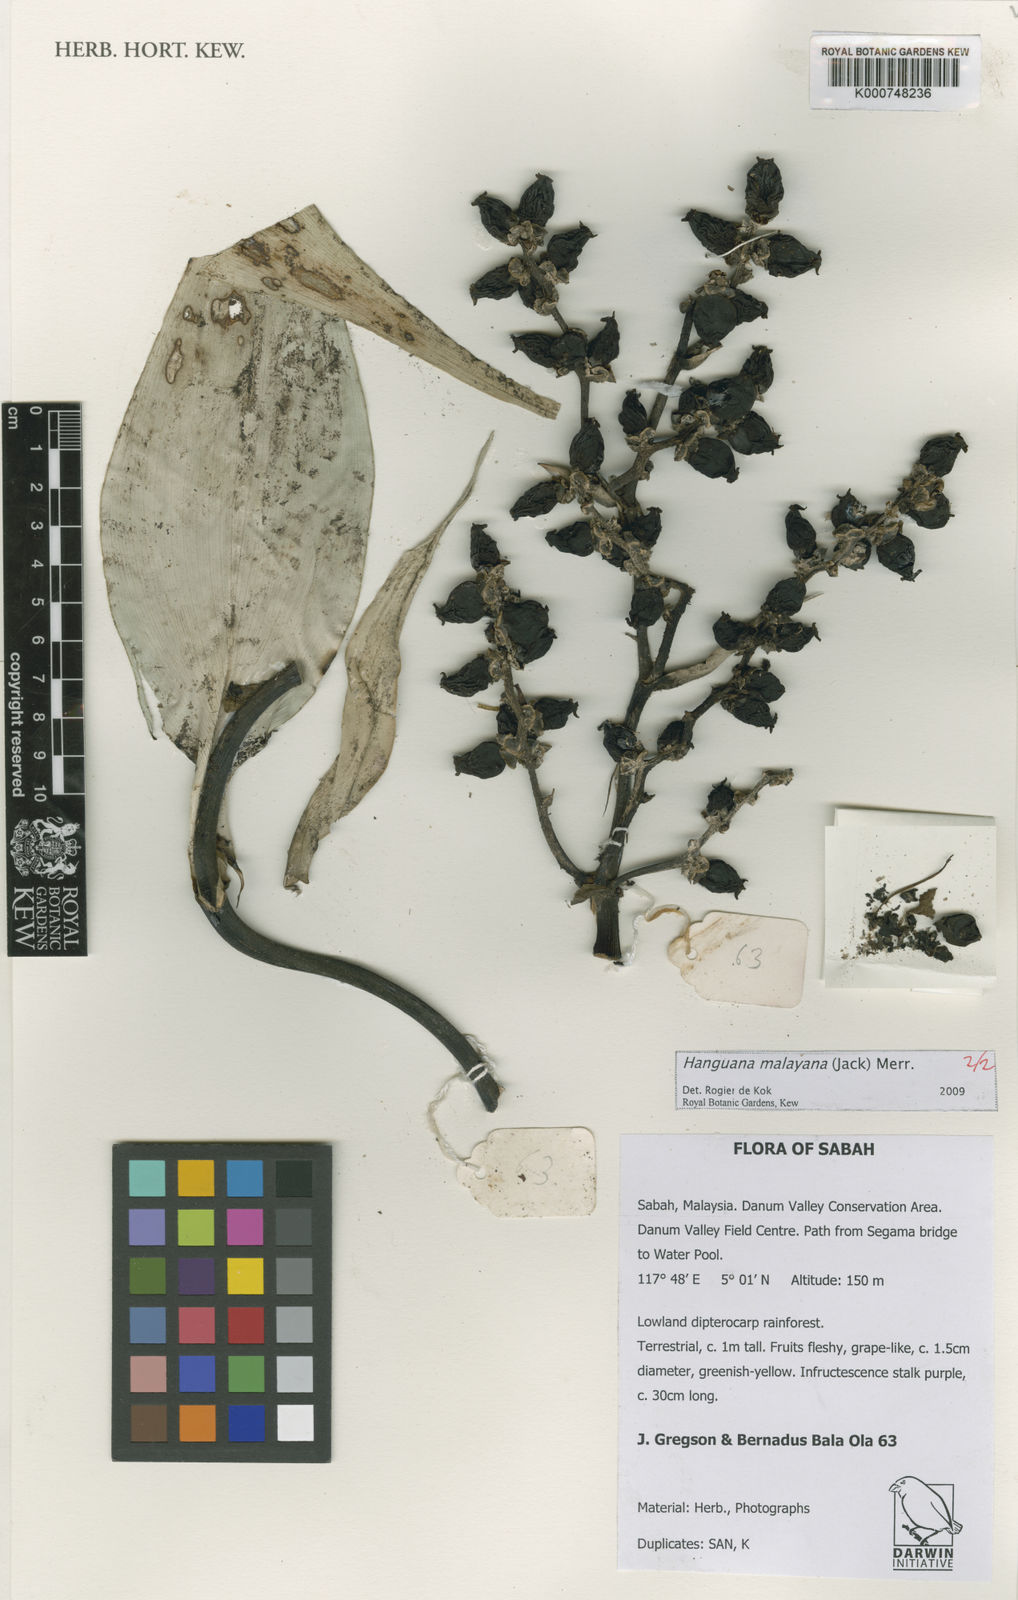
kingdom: Plantae
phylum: Tracheophyta
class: Liliopsida
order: Commelinales
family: Hanguanaceae
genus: Hanguana
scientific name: Hanguana malayana
